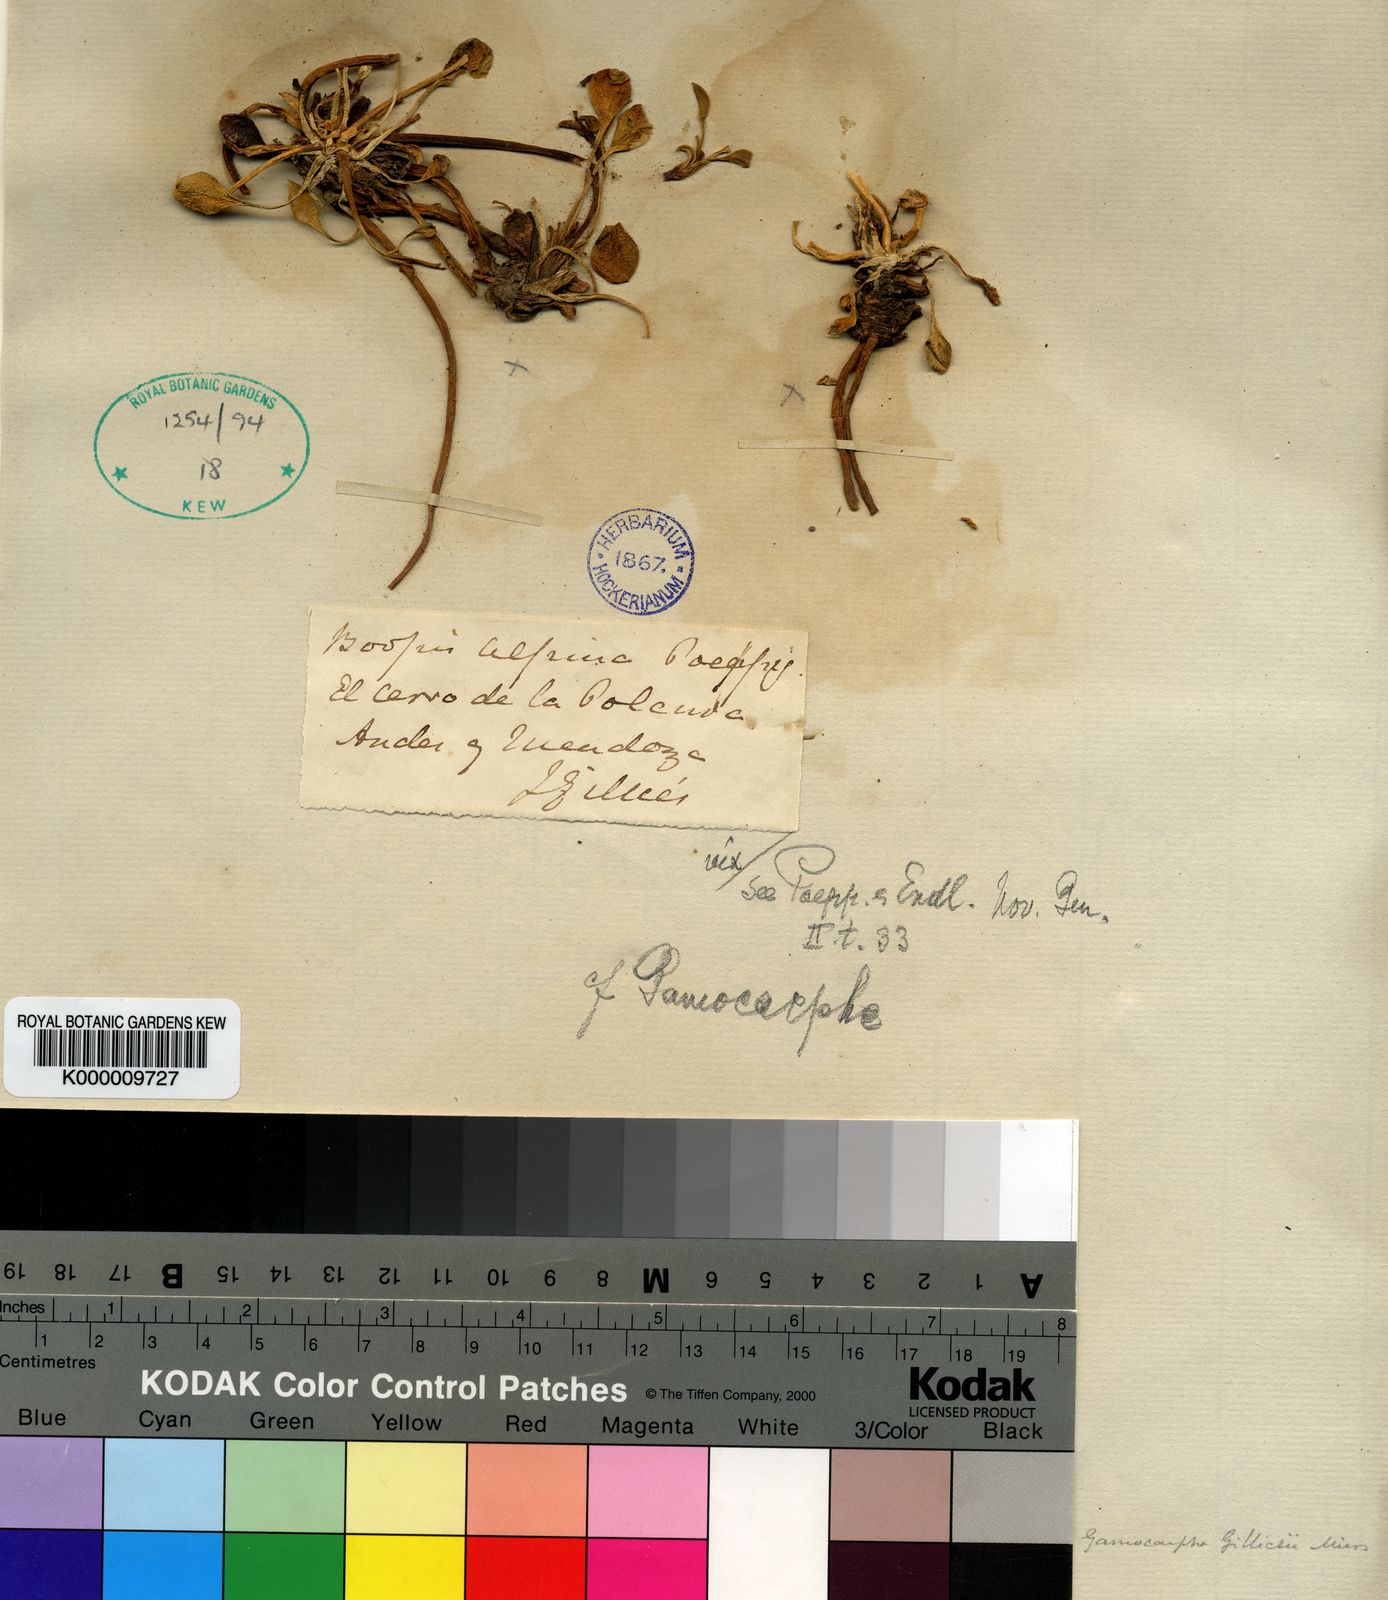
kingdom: Plantae
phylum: Tracheophyta
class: Magnoliopsida
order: Asterales
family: Calyceraceae
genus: Gamocarpha
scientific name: Gamocarpha alpina
